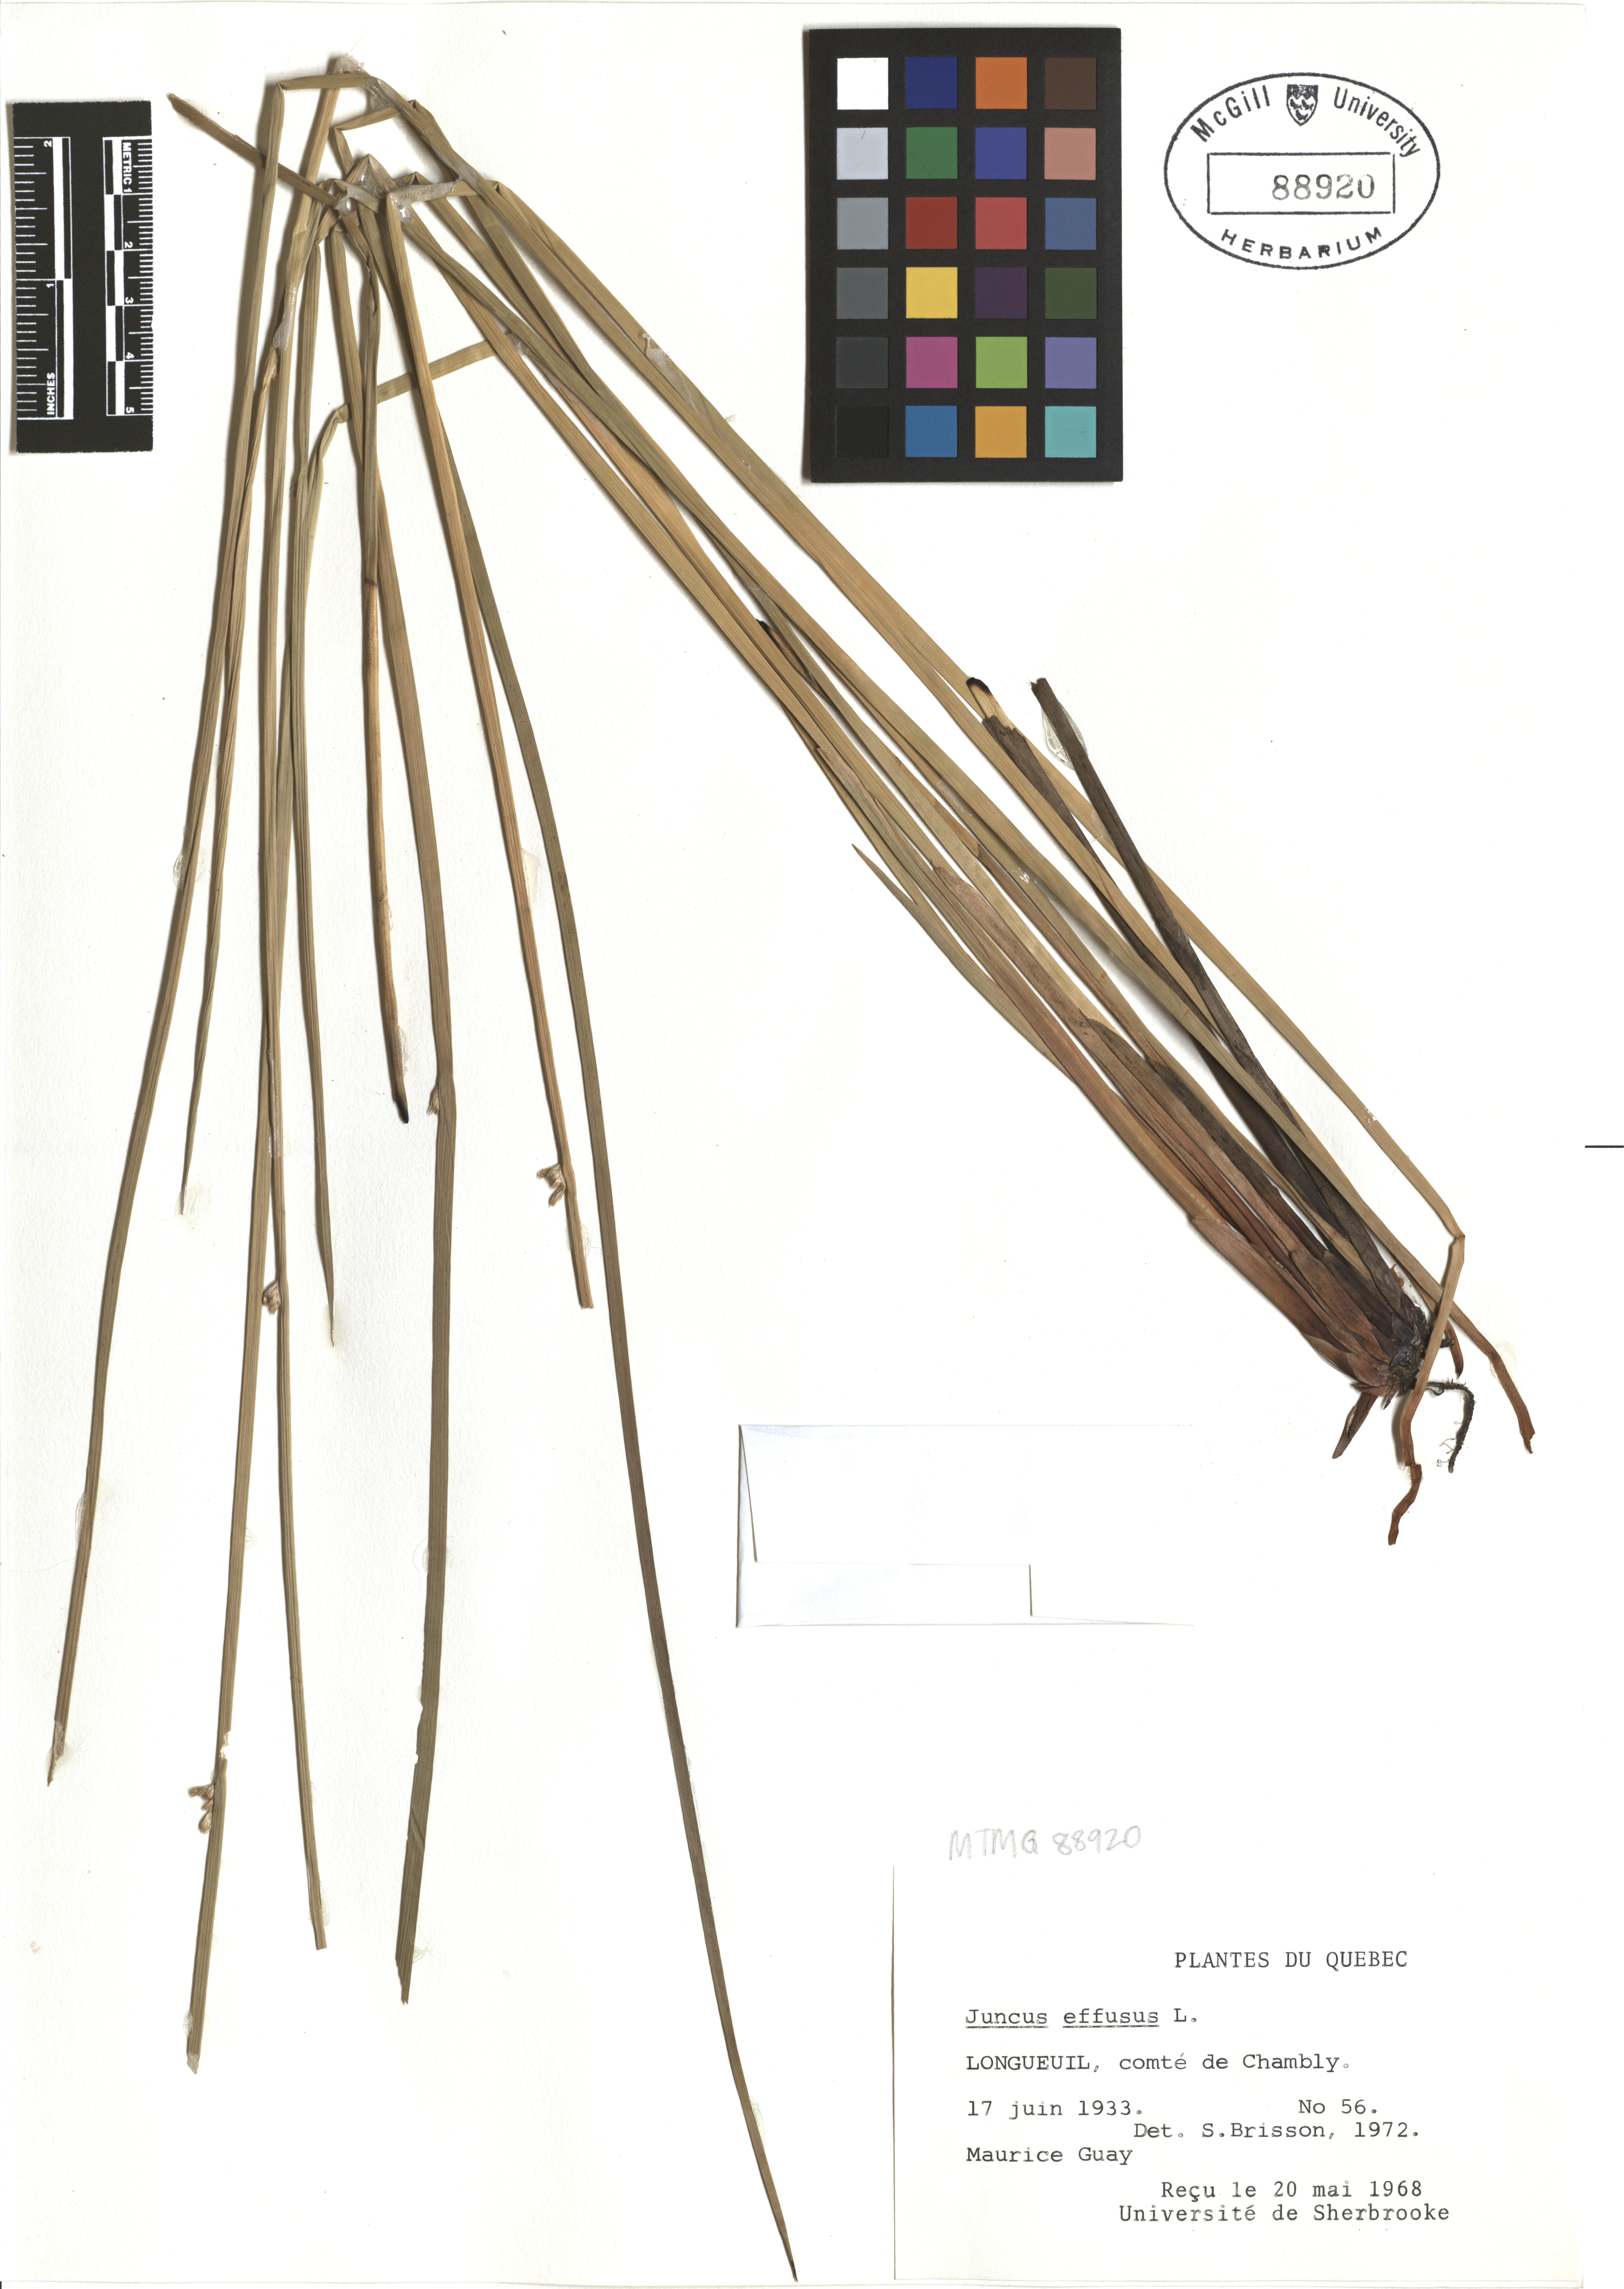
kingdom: Plantae
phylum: Tracheophyta
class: Liliopsida
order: Poales
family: Juncaceae
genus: Juncus
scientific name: Juncus effusus
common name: Soft rush
